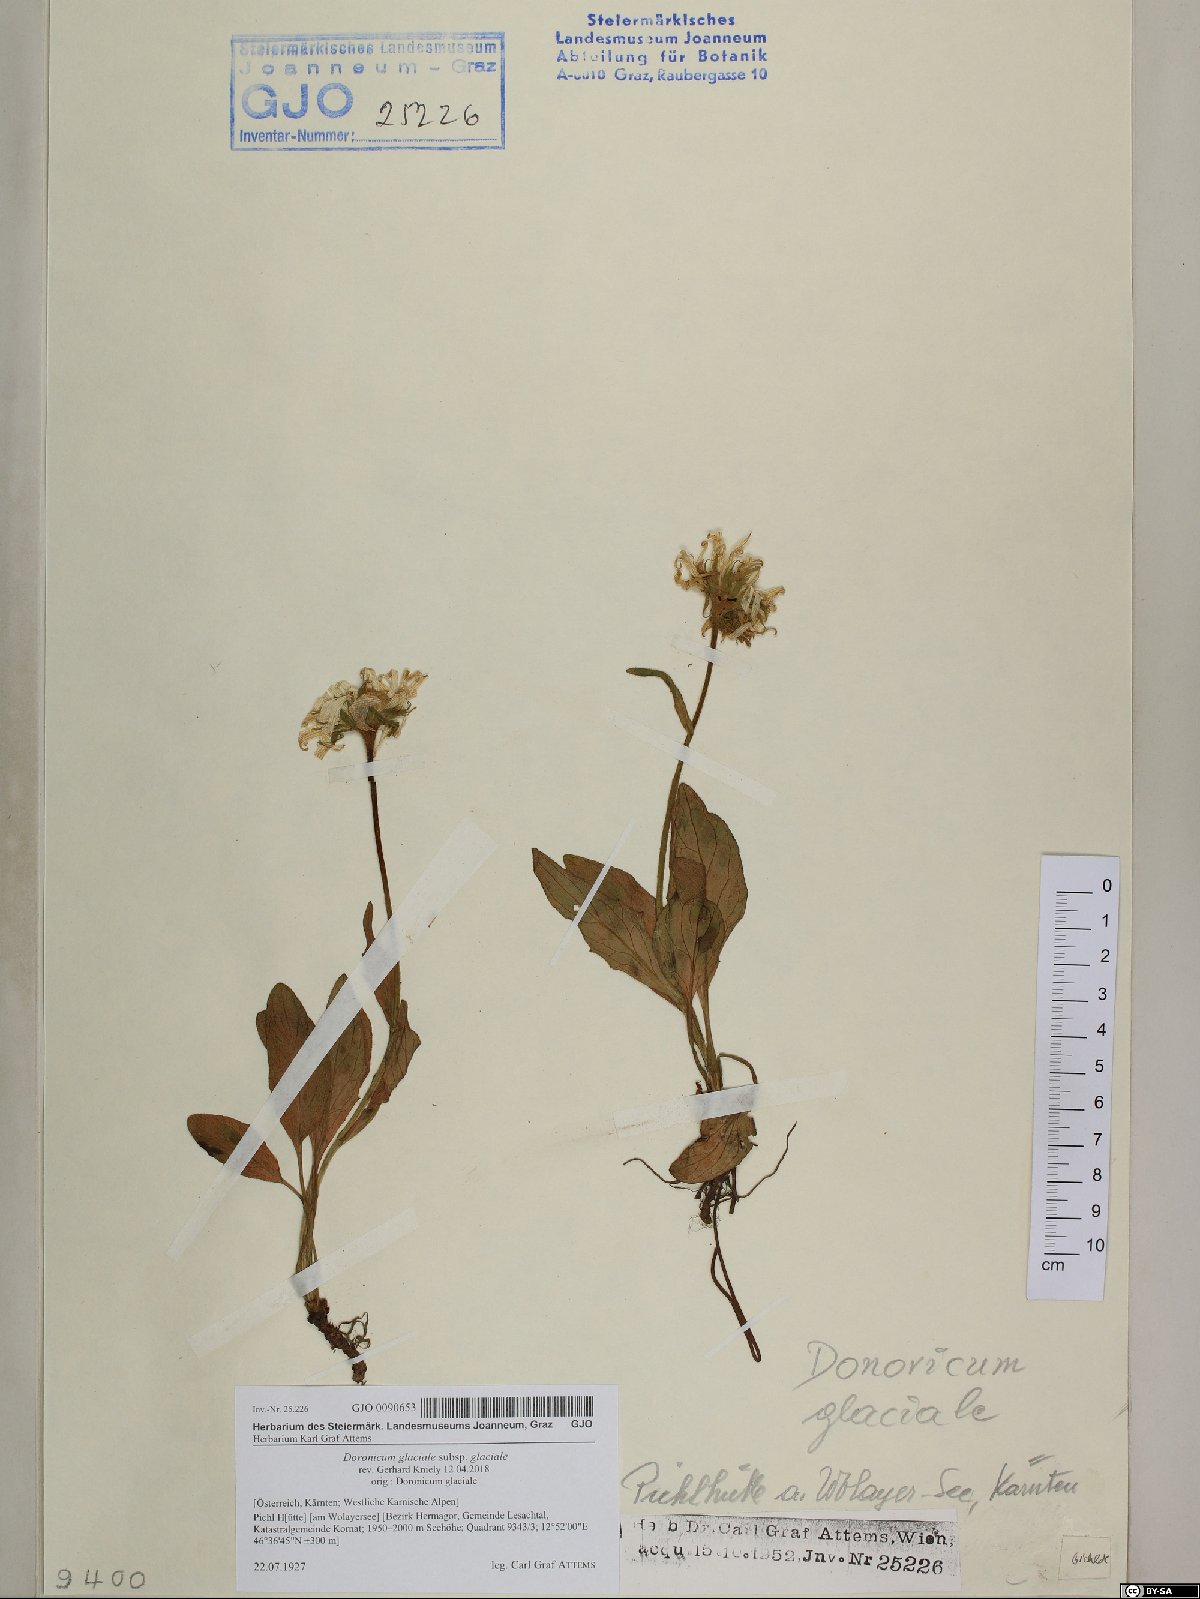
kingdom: Plantae
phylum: Tracheophyta
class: Magnoliopsida
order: Asterales
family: Asteraceae
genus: Doronicum
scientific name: Doronicum glaciale
